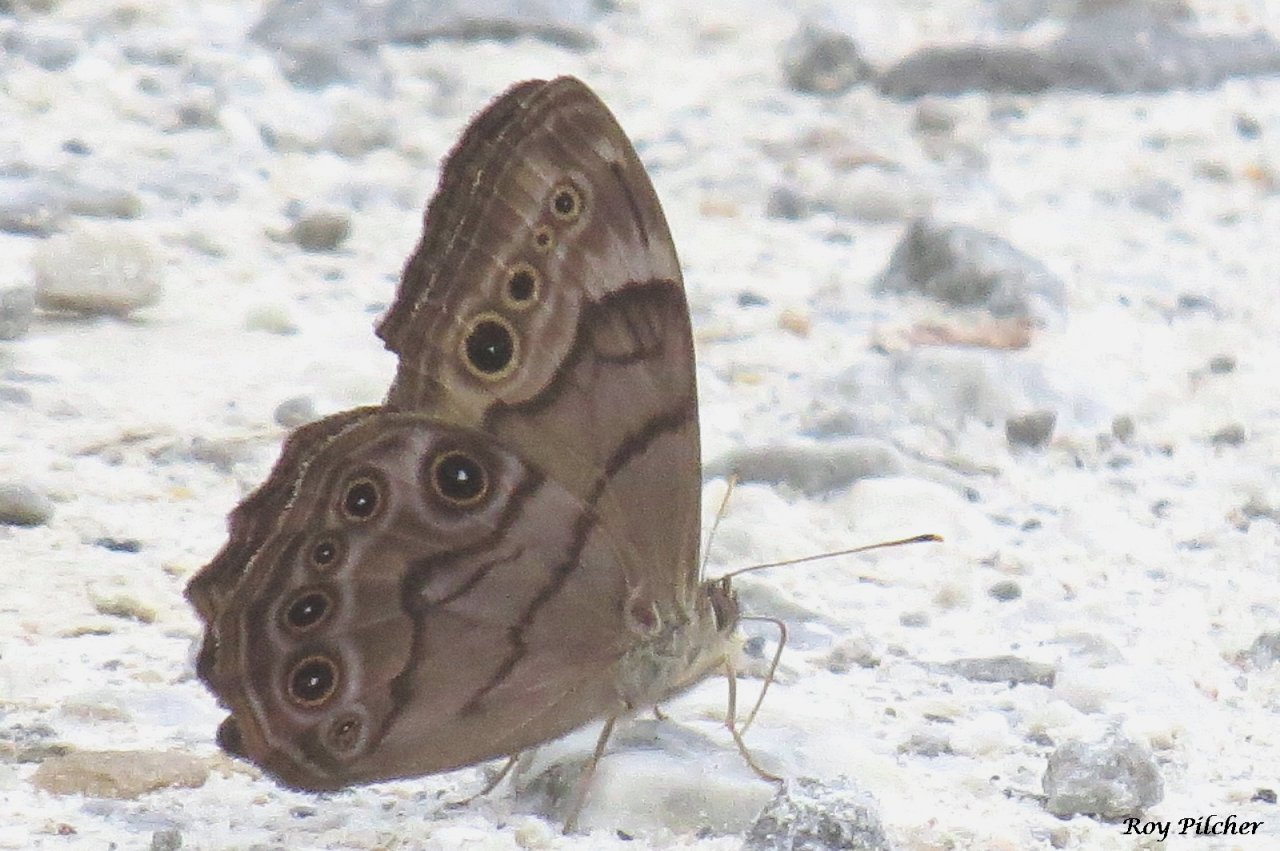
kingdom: Animalia
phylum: Arthropoda
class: Insecta
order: Lepidoptera
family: Nymphalidae
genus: Lethe
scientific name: Lethe anthedon
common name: Northern Pearly-Eye
